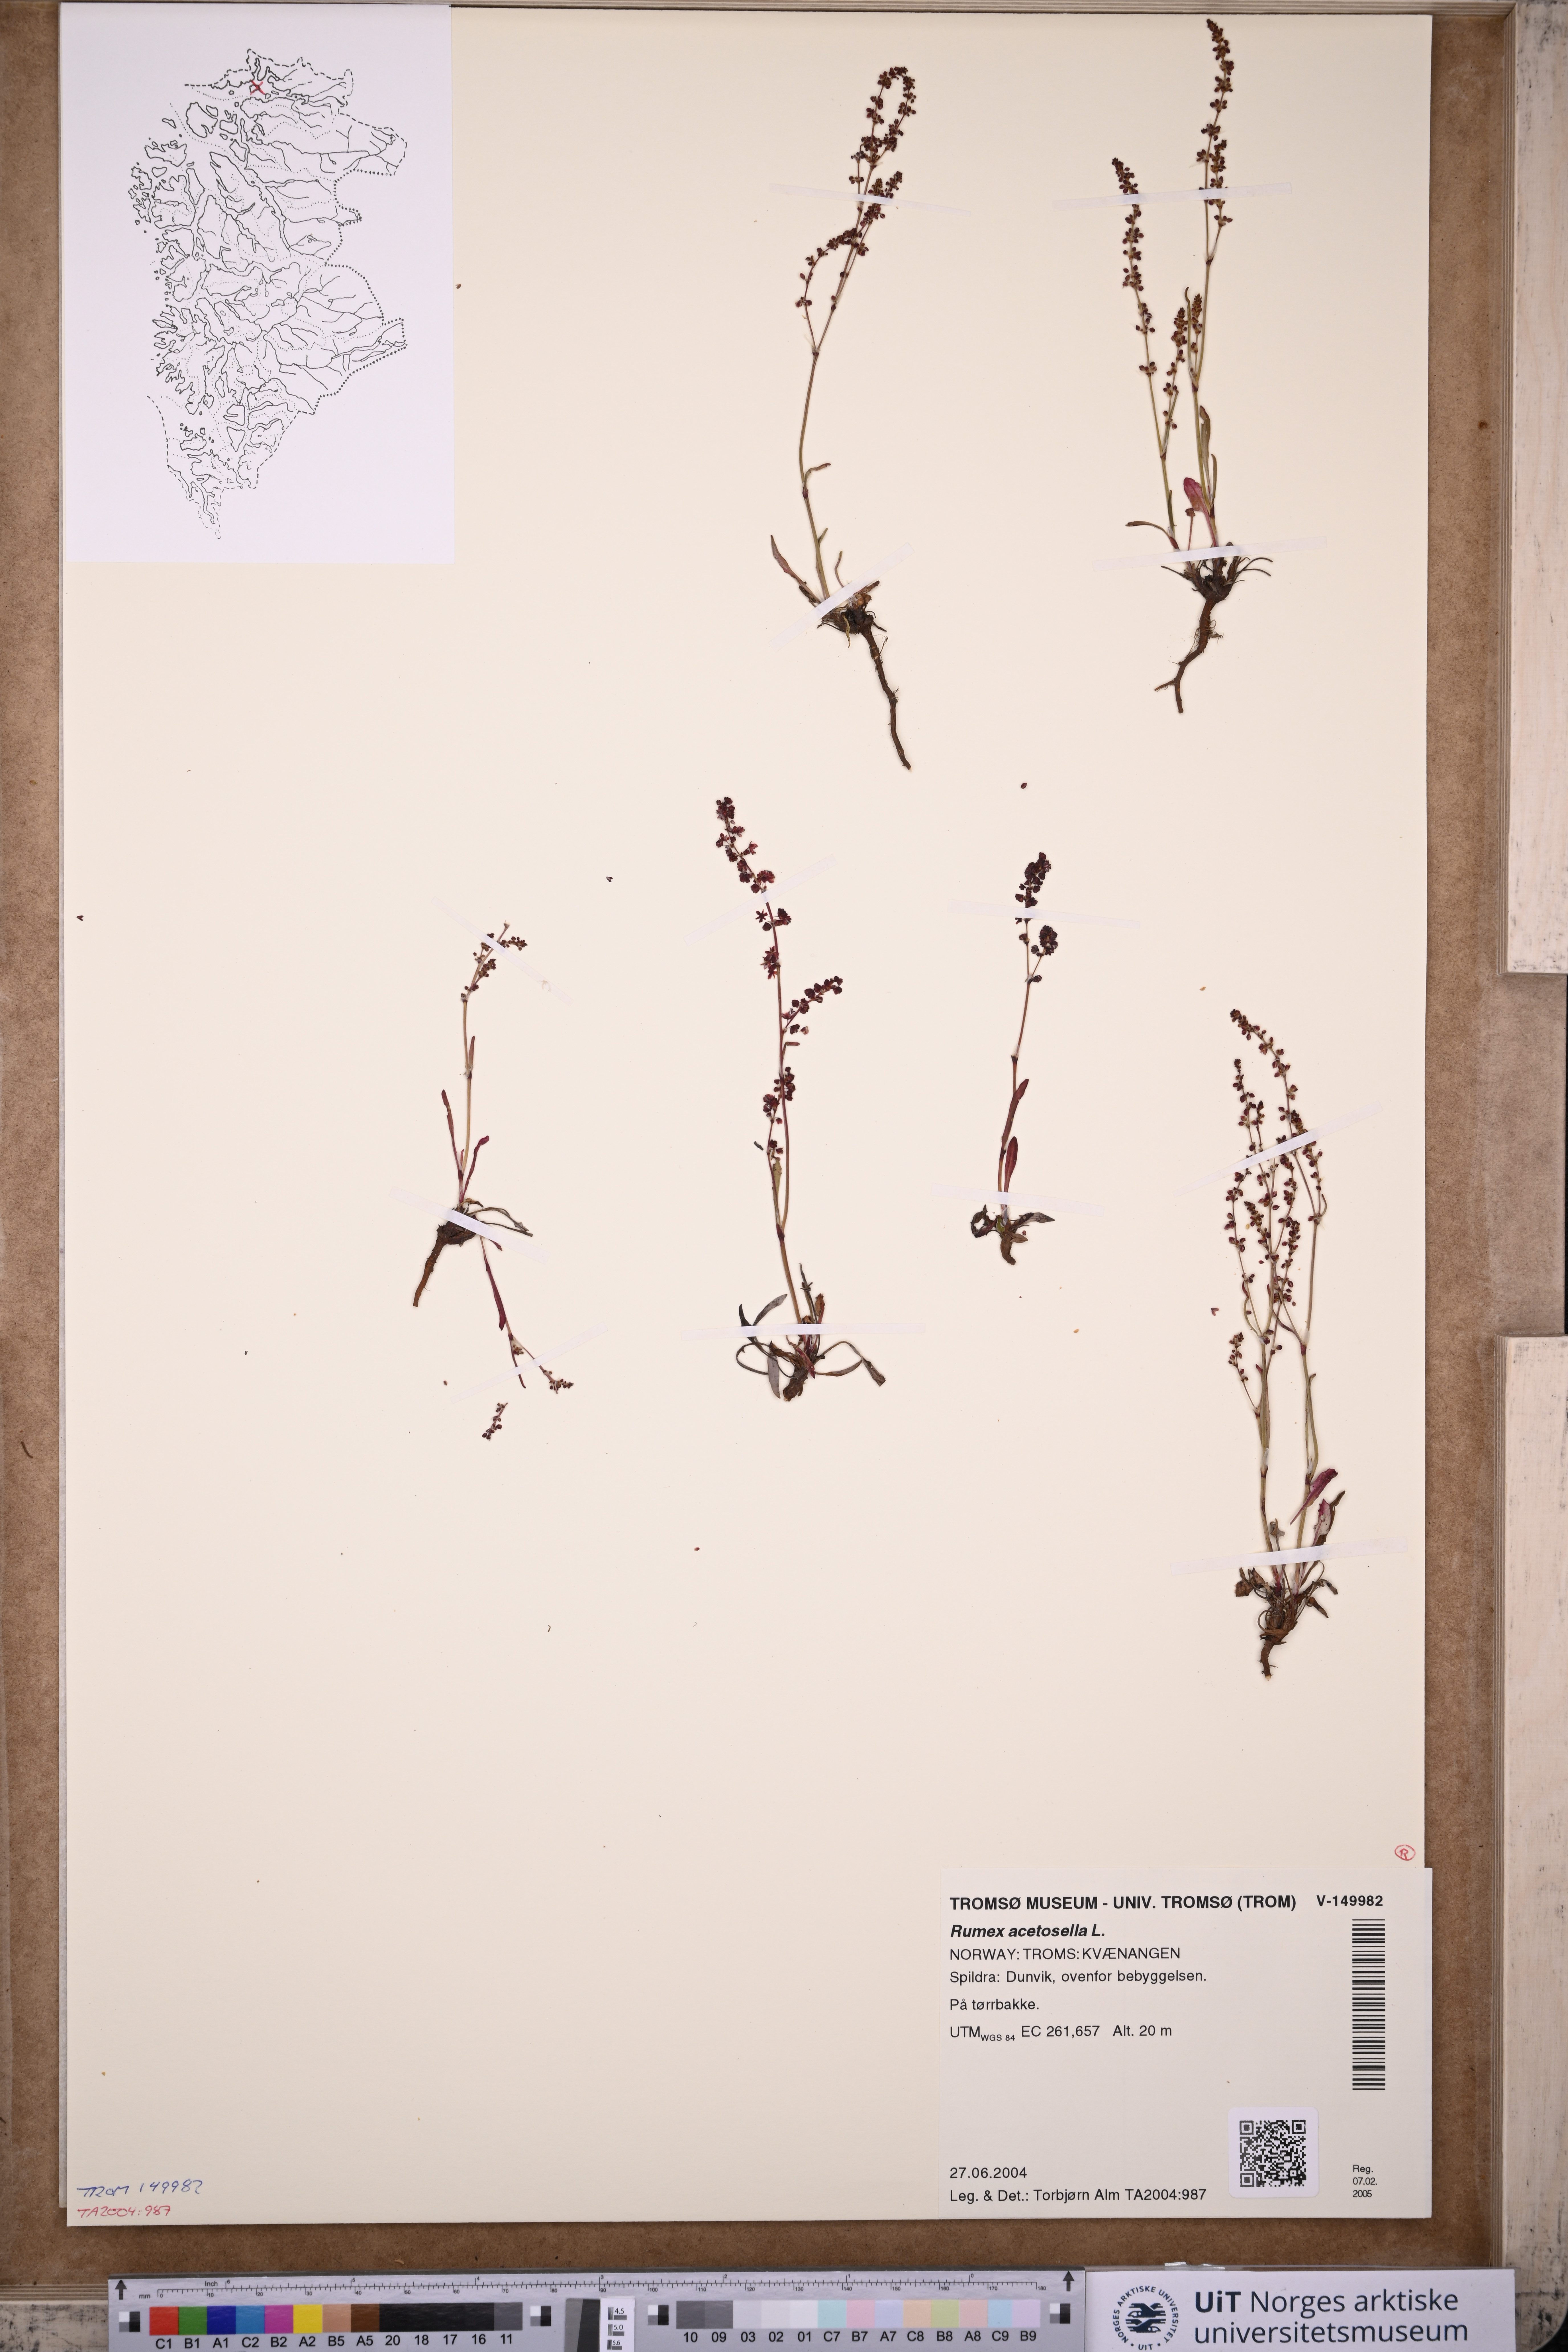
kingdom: Plantae
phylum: Tracheophyta
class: Magnoliopsida
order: Caryophyllales
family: Polygonaceae
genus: Rumex
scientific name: Rumex acetosella
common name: Common sheep sorrel
